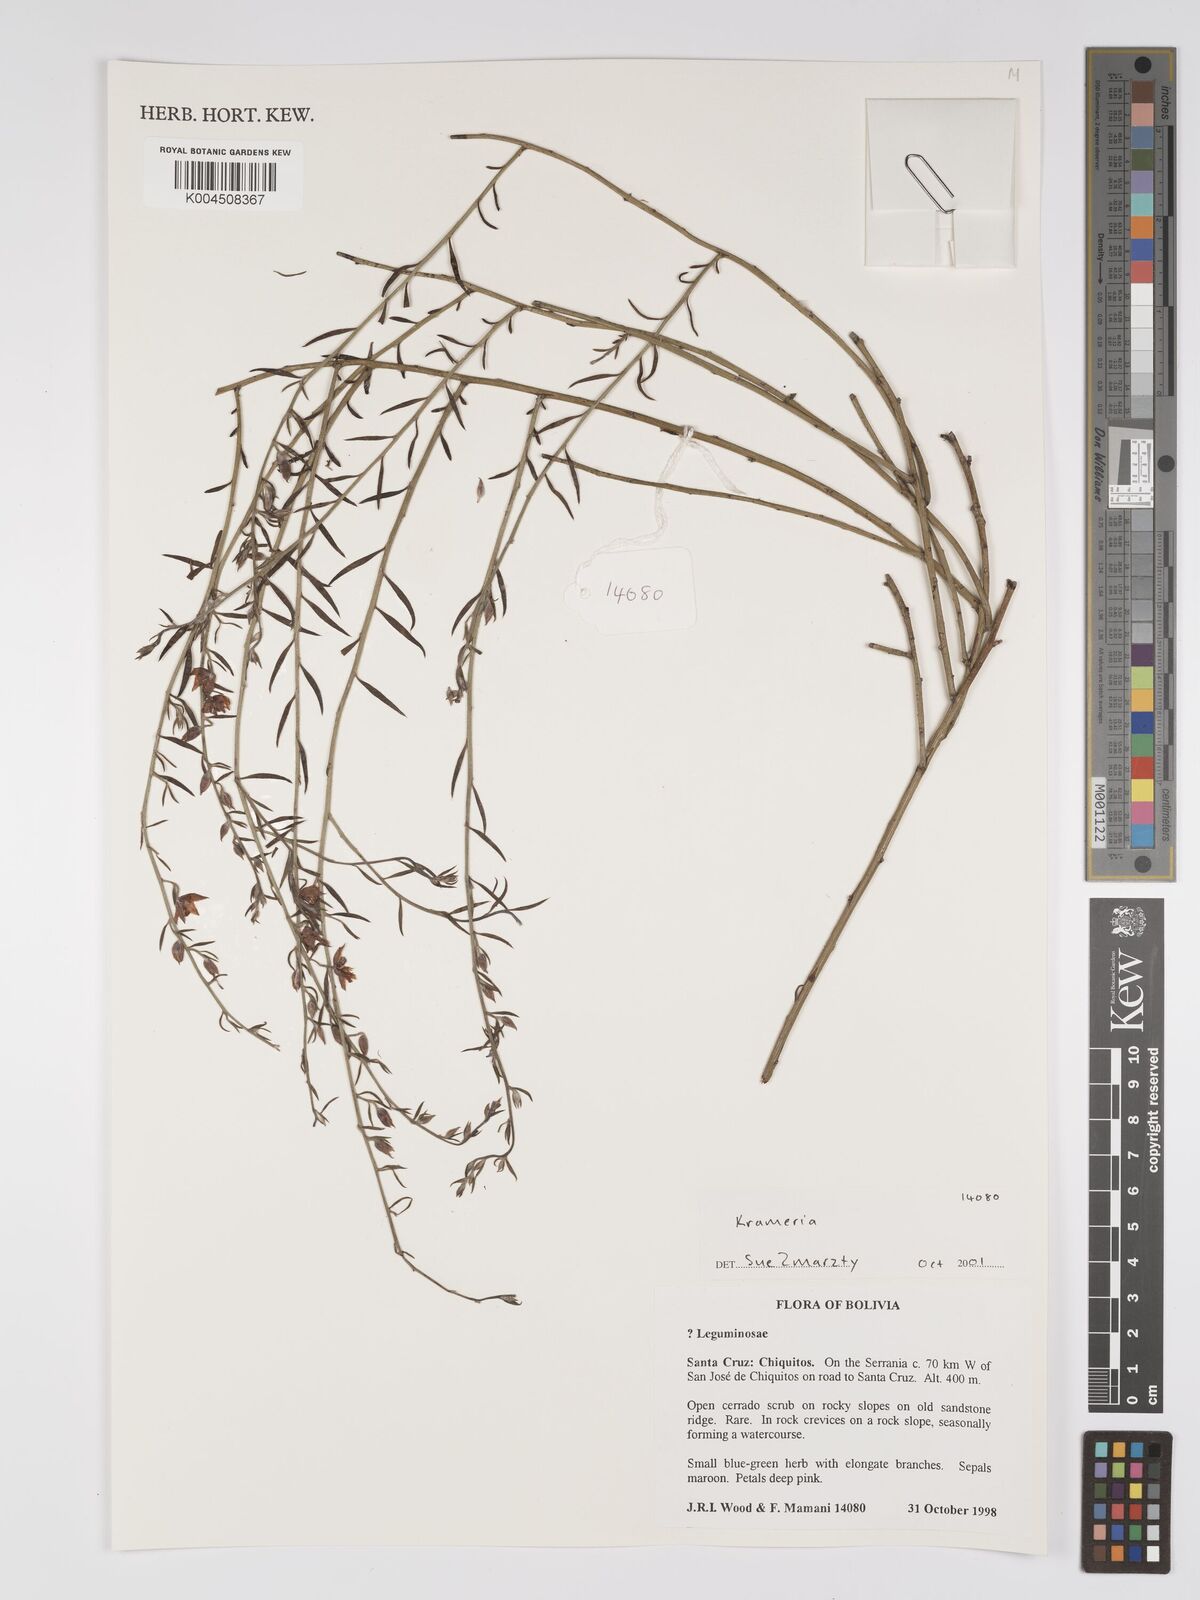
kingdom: Plantae
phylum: Tracheophyta
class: Magnoliopsida
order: Zygophyllales
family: Krameriaceae
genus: Krameria
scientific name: Krameria
